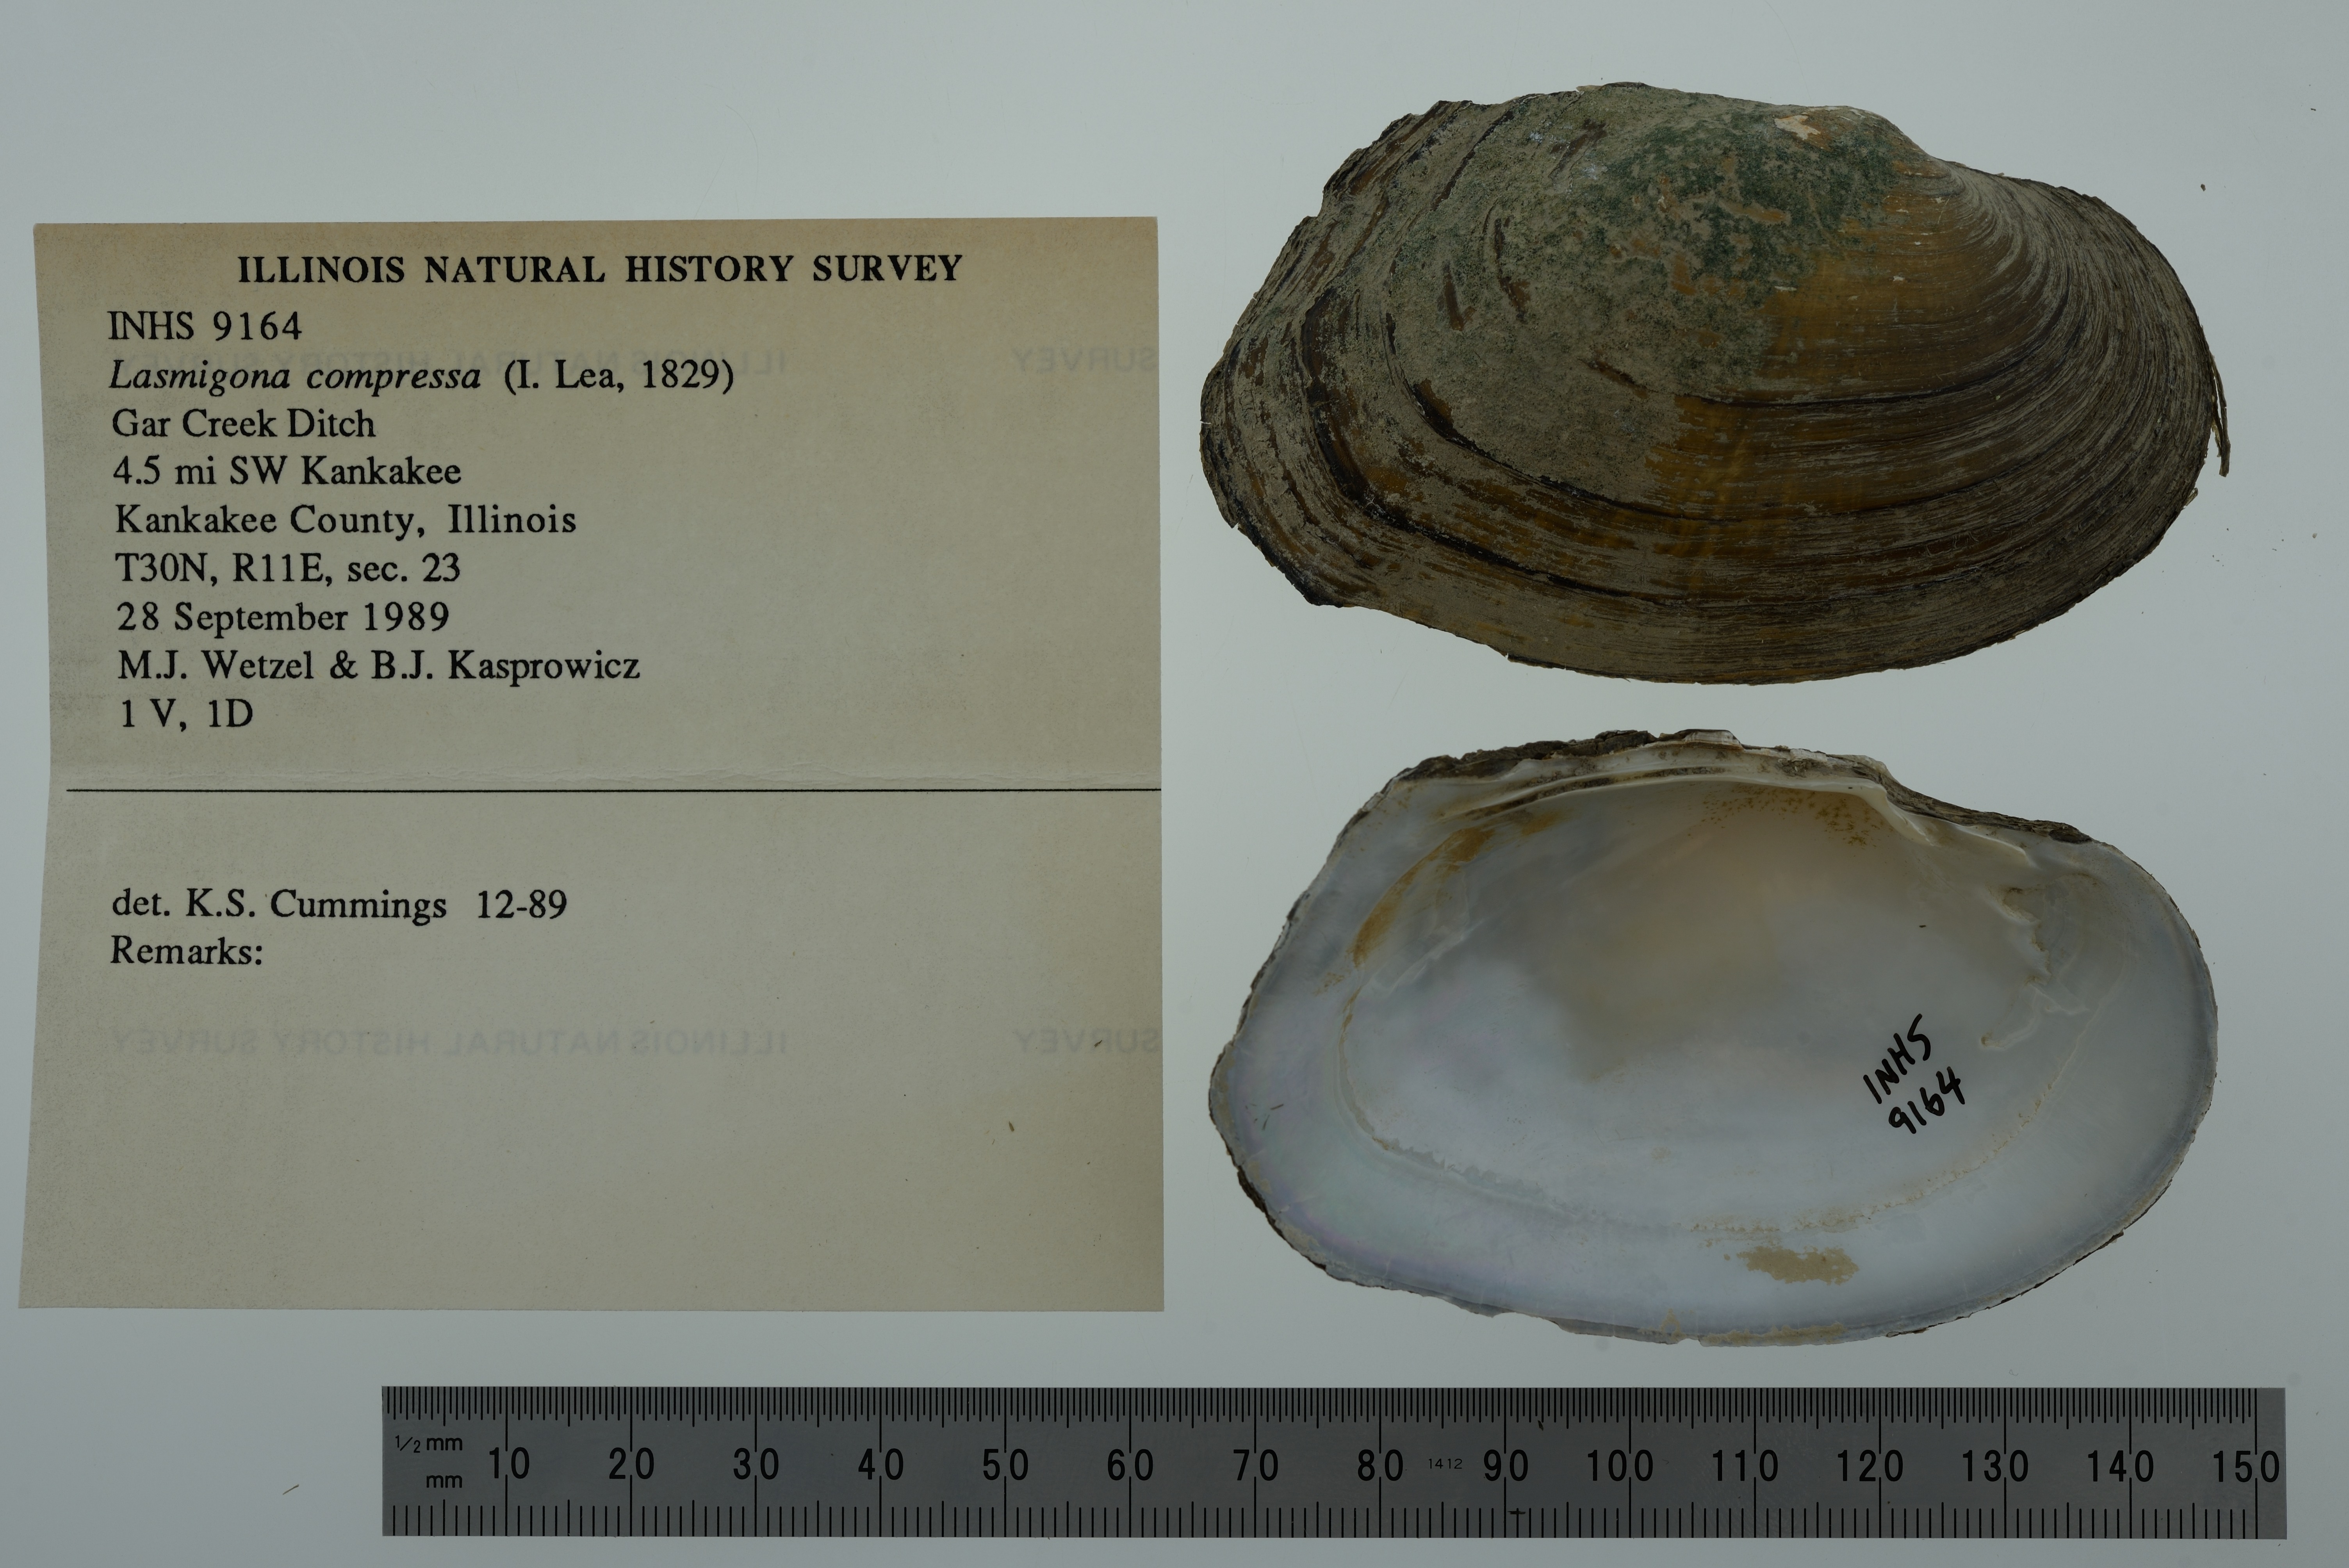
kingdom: Animalia
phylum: Mollusca
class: Bivalvia
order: Unionida
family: Unionidae
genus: Lasmigona
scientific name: Lasmigona compressa
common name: Creek heelsplitter
